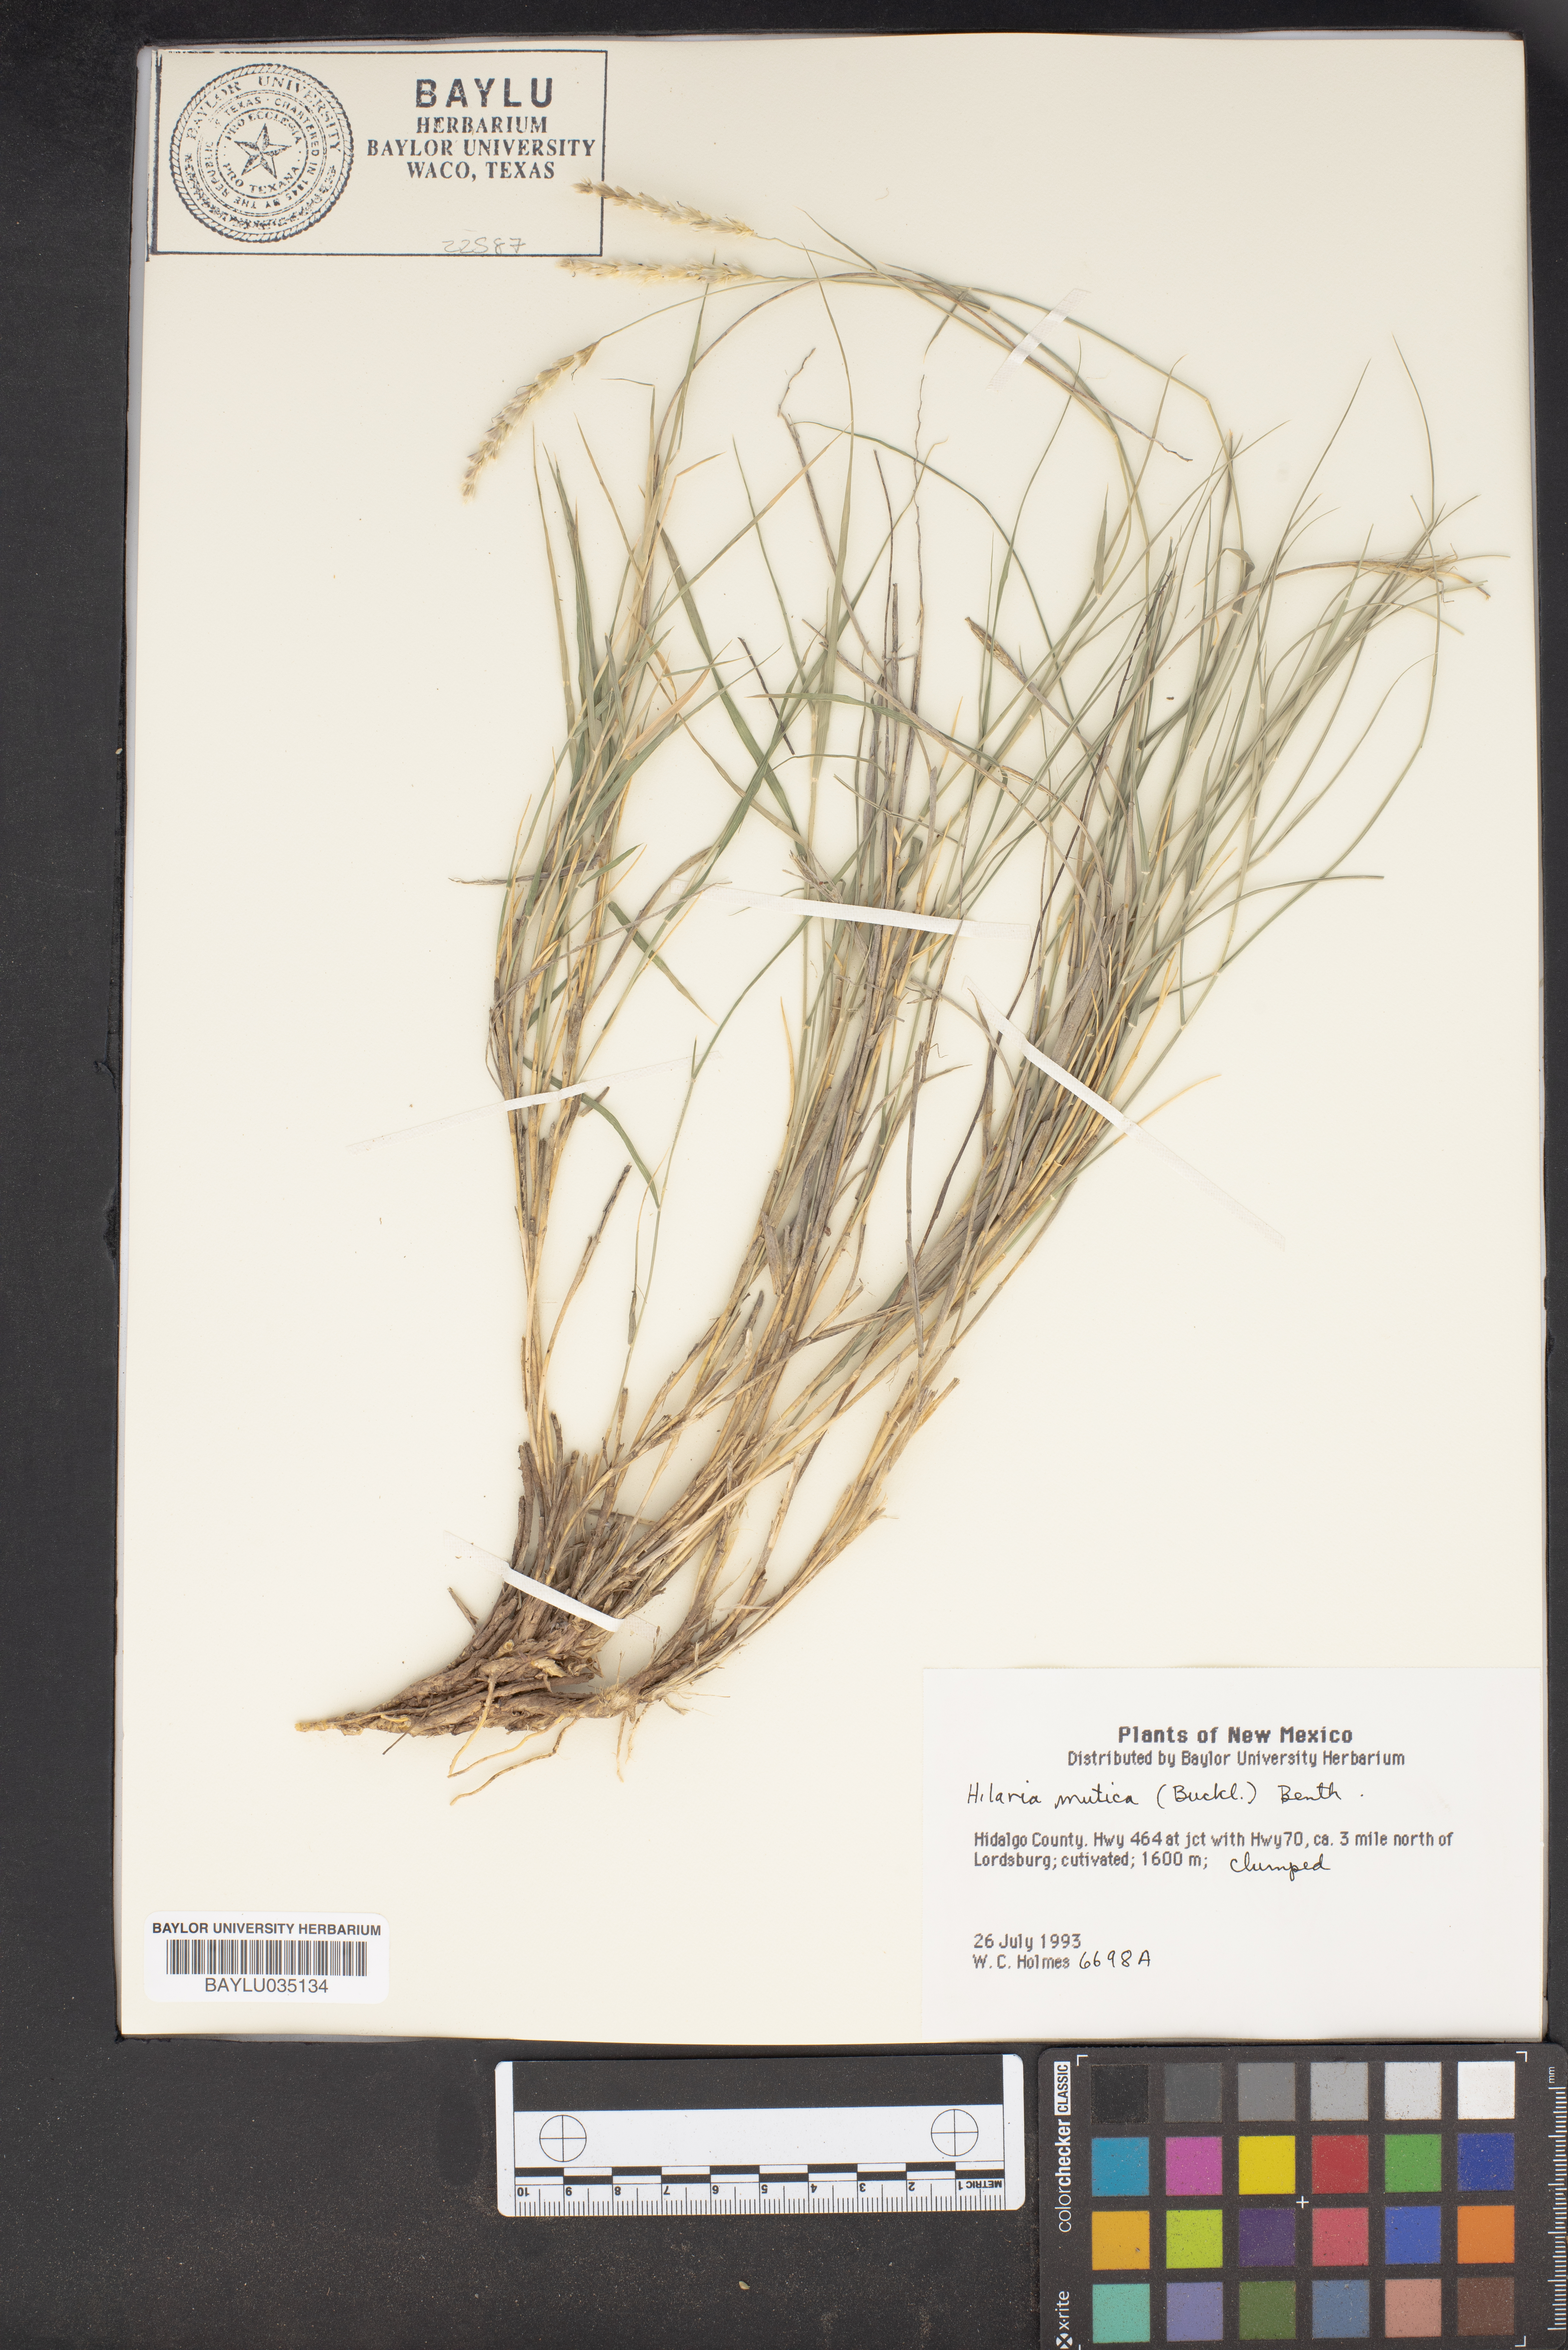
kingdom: Plantae
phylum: Tracheophyta
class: Liliopsida
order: Poales
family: Poaceae
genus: Hilaria
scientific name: Hilaria mutica
